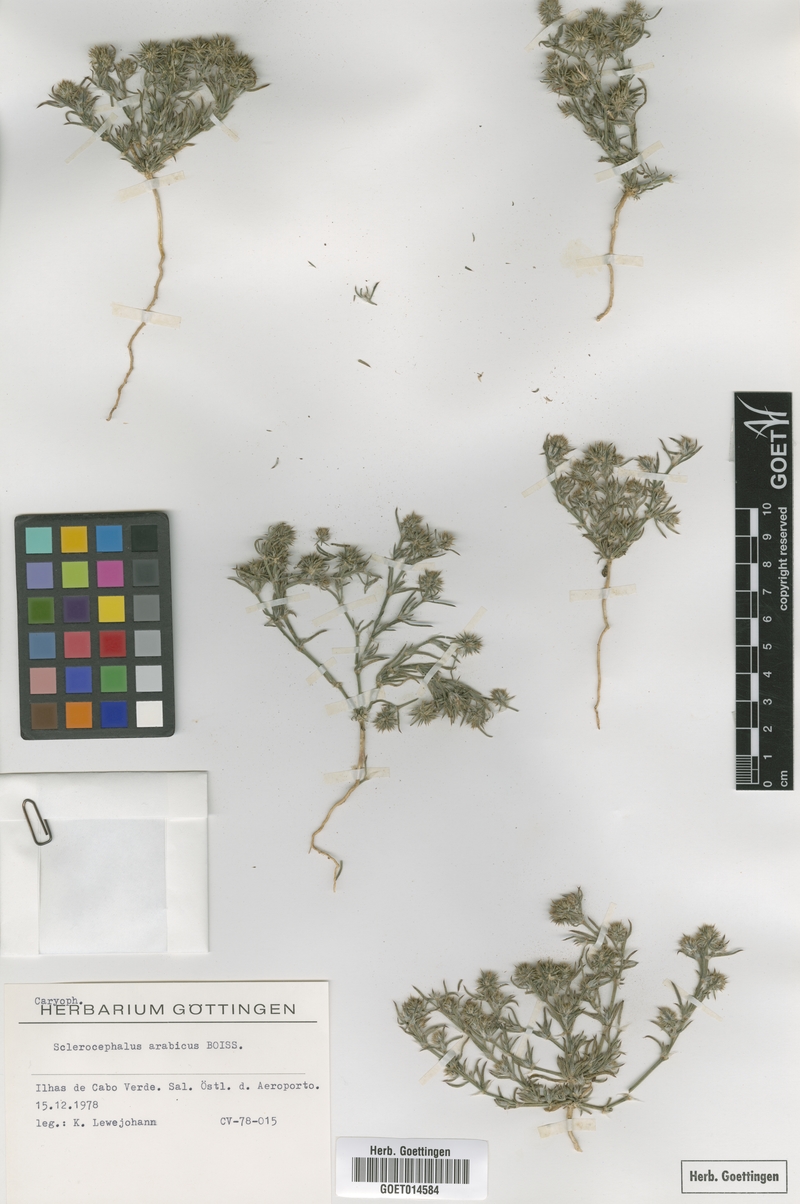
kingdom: Plantae
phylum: Tracheophyta
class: Magnoliopsida
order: Caryophyllales
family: Caryophyllaceae
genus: Gymnocarpos
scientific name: Gymnocarpos sclerocephalus
